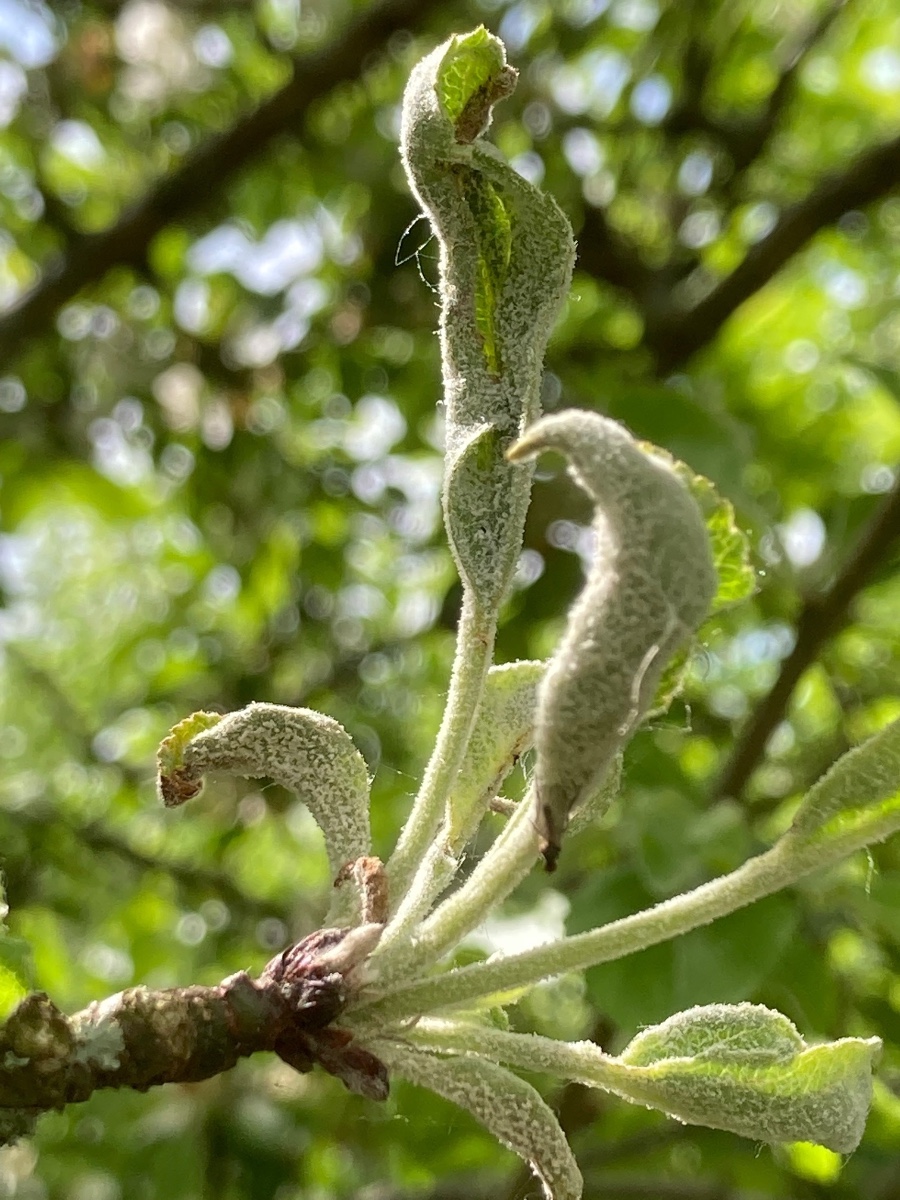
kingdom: Fungi
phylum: Ascomycota
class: Leotiomycetes
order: Helotiales
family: Erysiphaceae
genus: Podosphaera
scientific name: Podosphaera leucotricha
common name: æble-meldug
